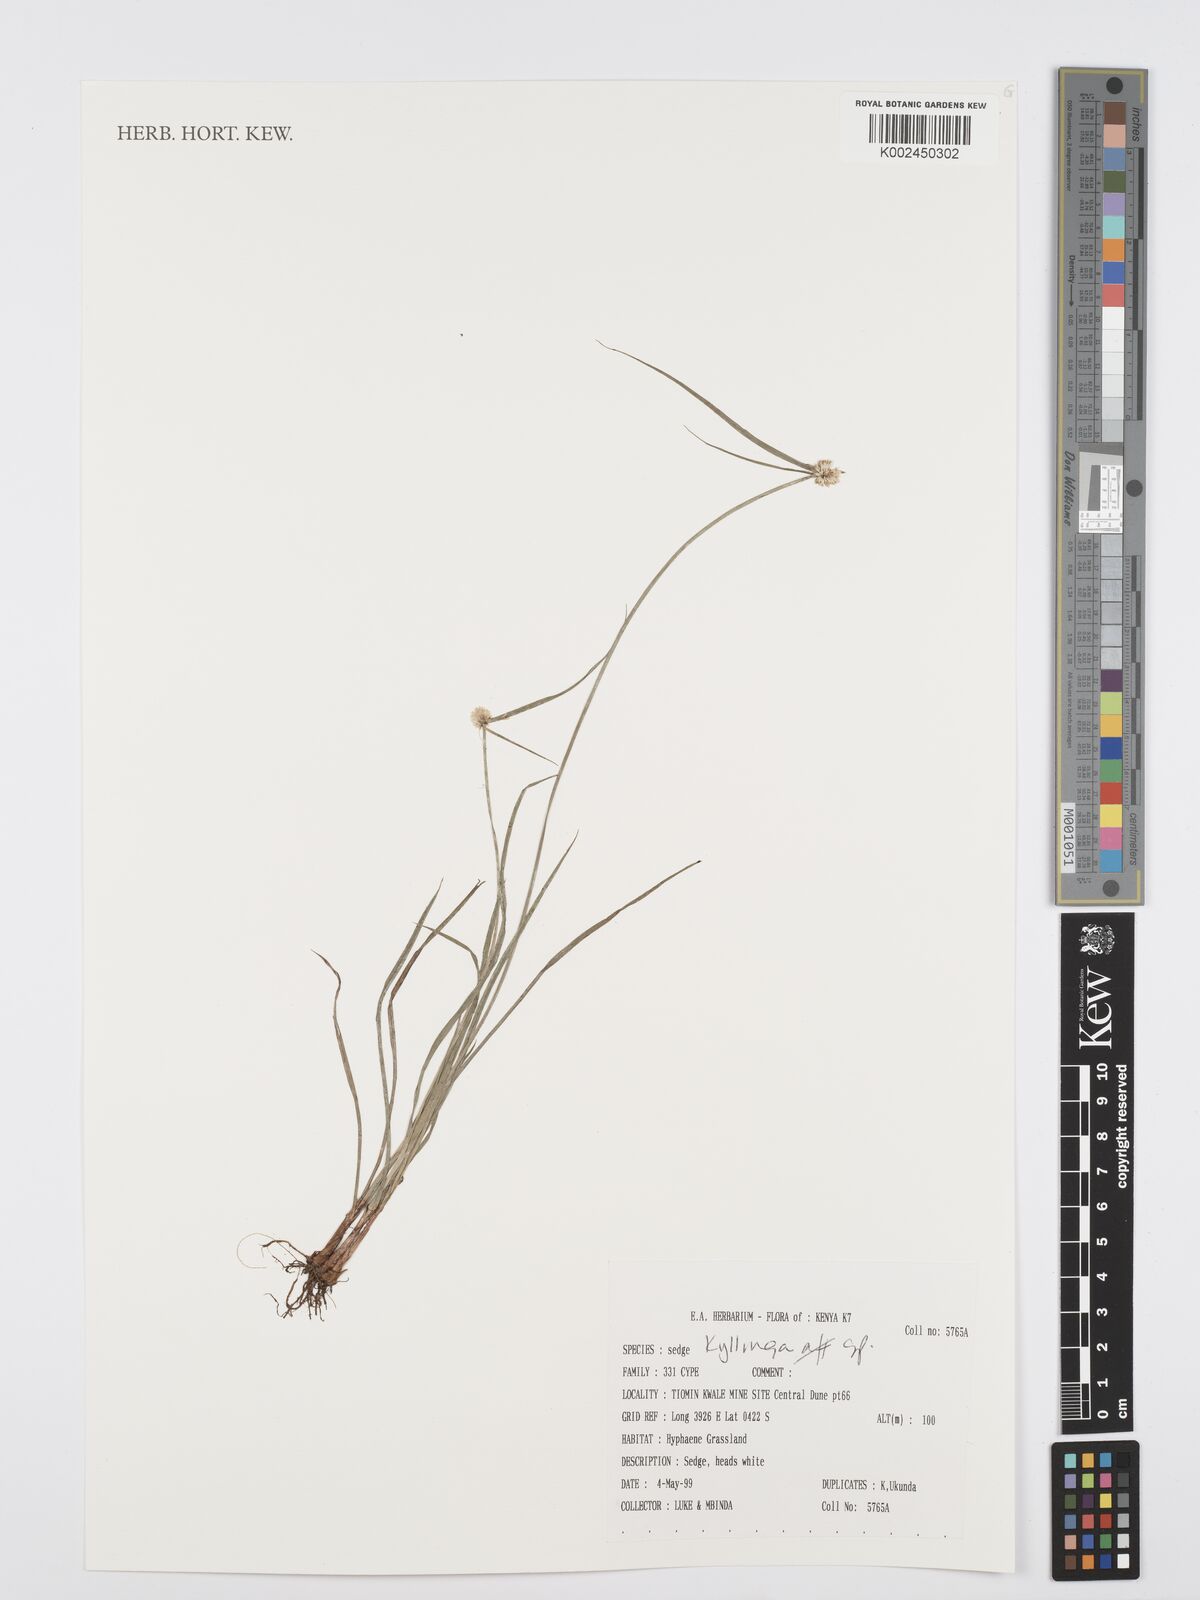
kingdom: Plantae
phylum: Tracheophyta
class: Liliopsida
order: Poales
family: Cyperaceae
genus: Cyperus
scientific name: Cyperus
